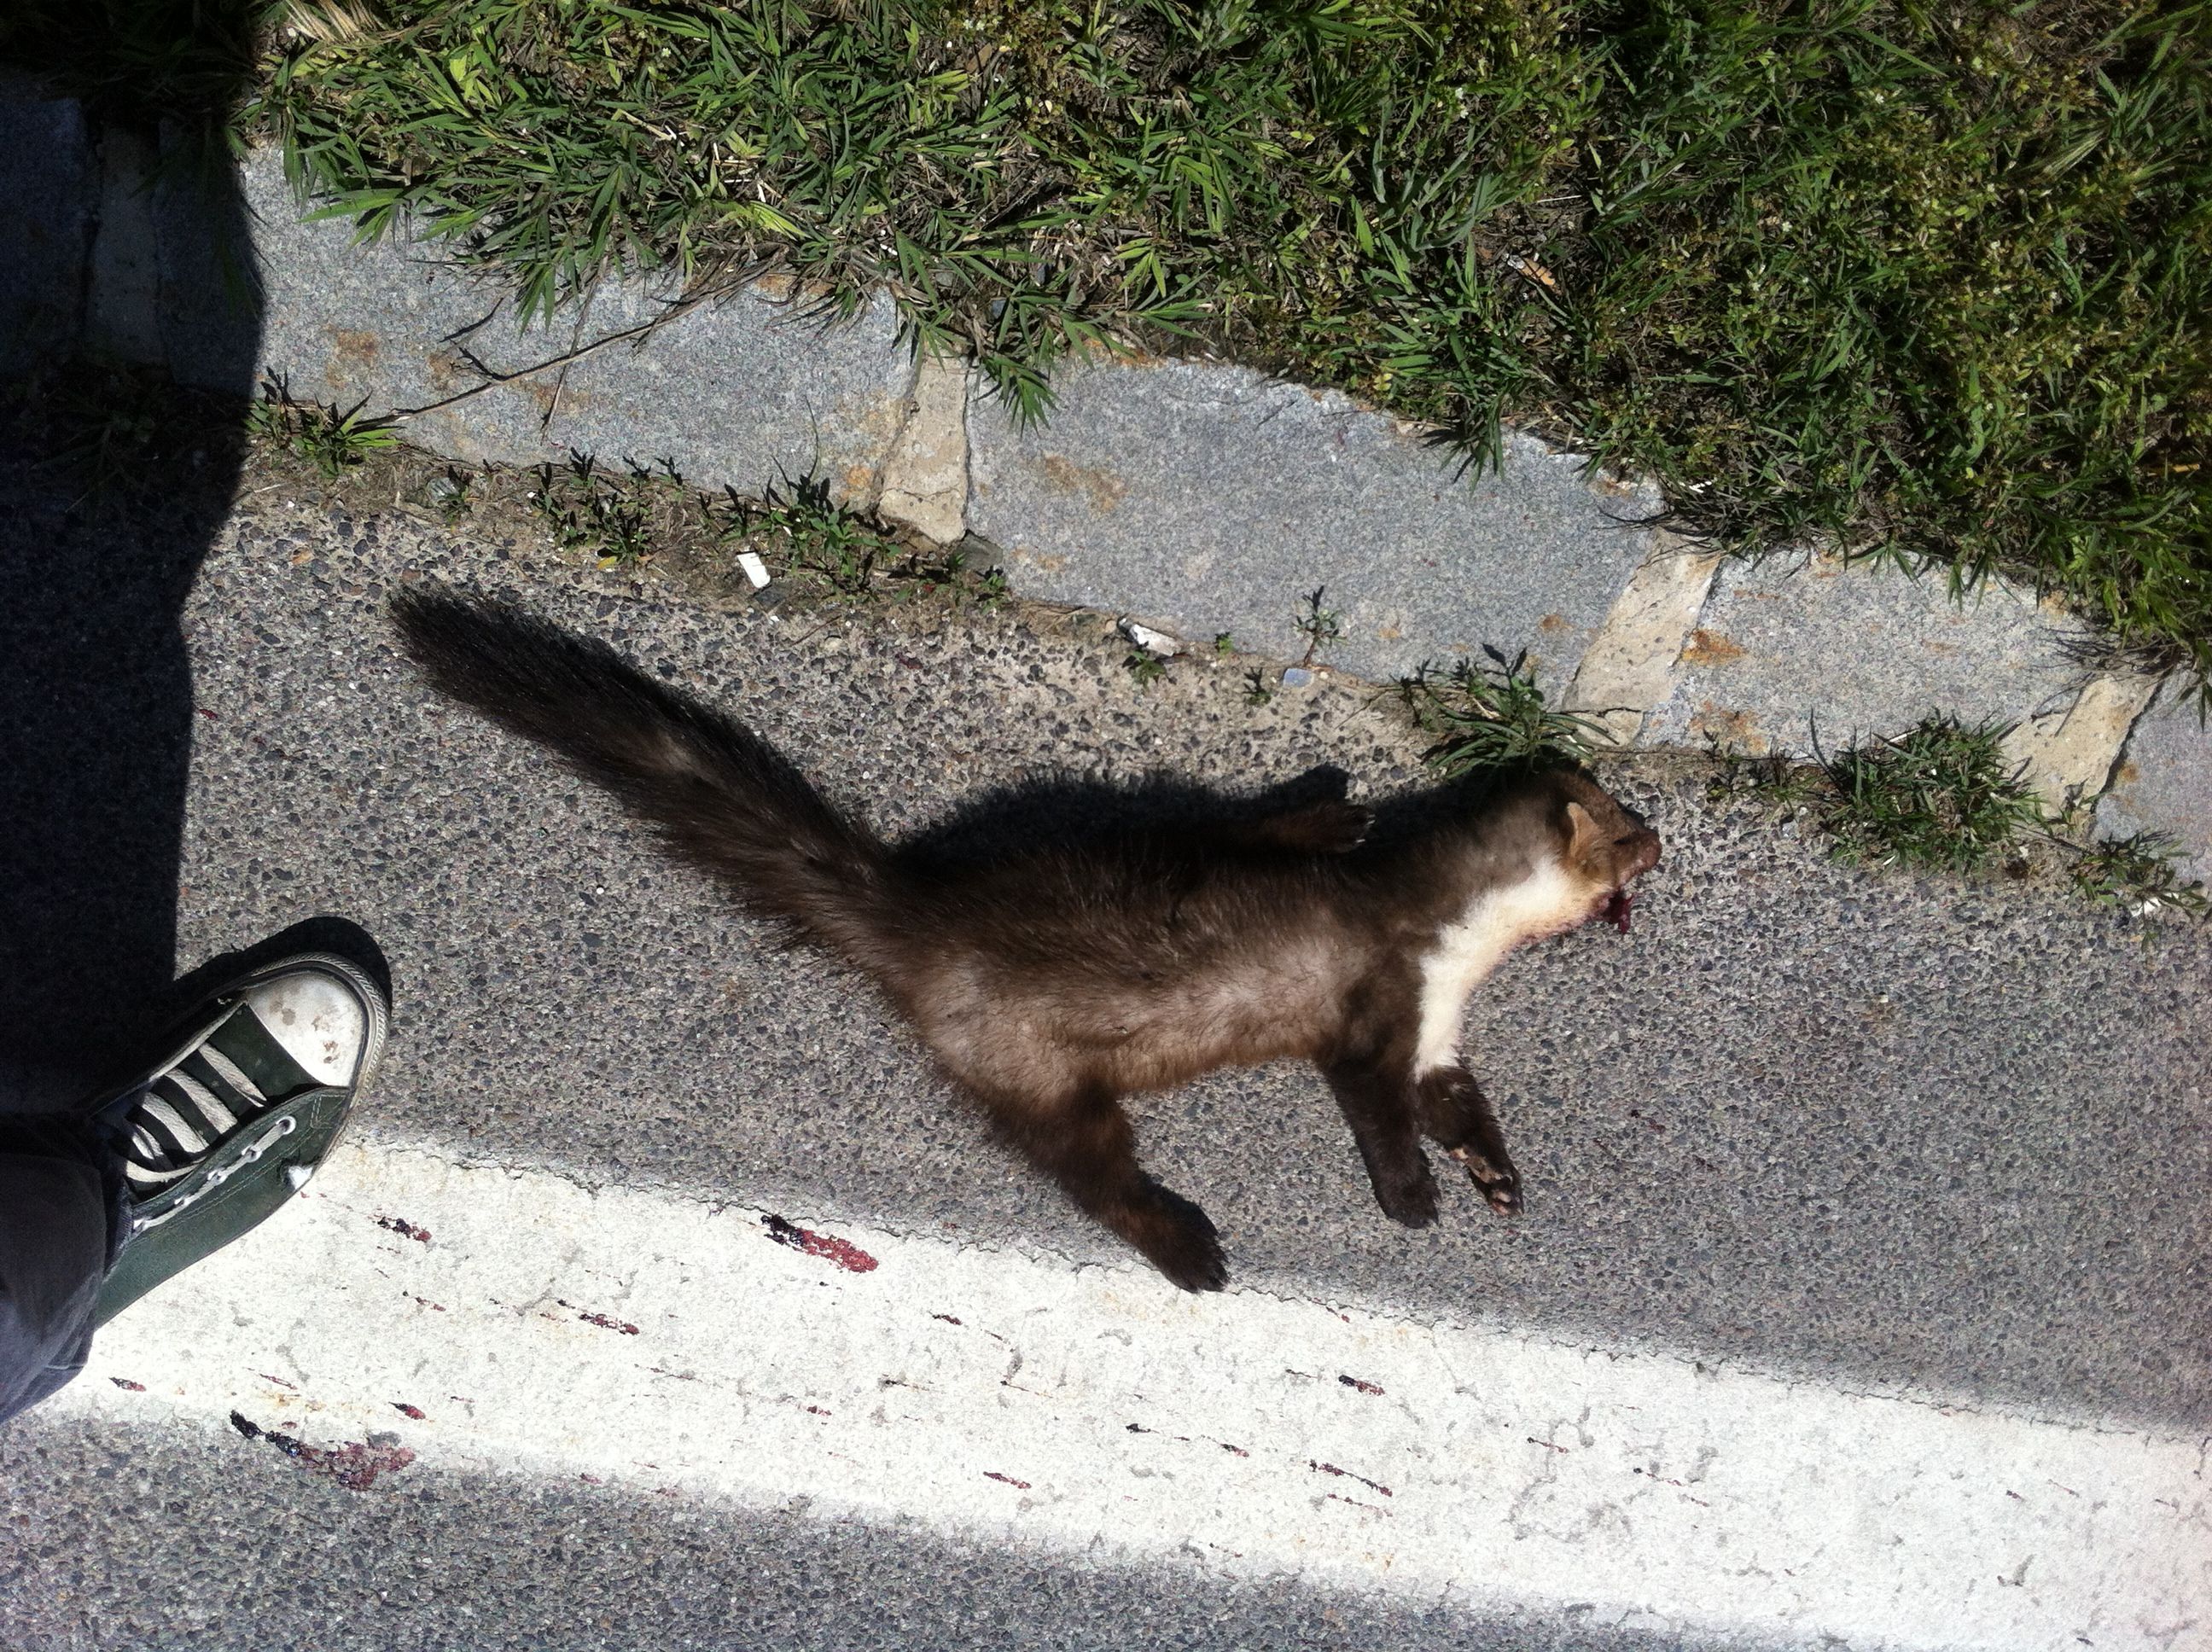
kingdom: Animalia
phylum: Chordata
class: Mammalia
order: Carnivora
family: Mustelidae
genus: Martes
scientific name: Martes foina
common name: Beech marten
